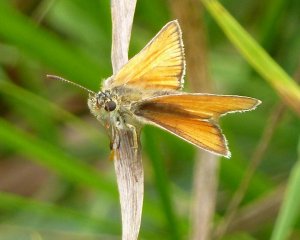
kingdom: Animalia
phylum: Arthropoda
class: Insecta
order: Lepidoptera
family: Hesperiidae
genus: Thymelicus
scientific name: Thymelicus lineola
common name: European Skipper
